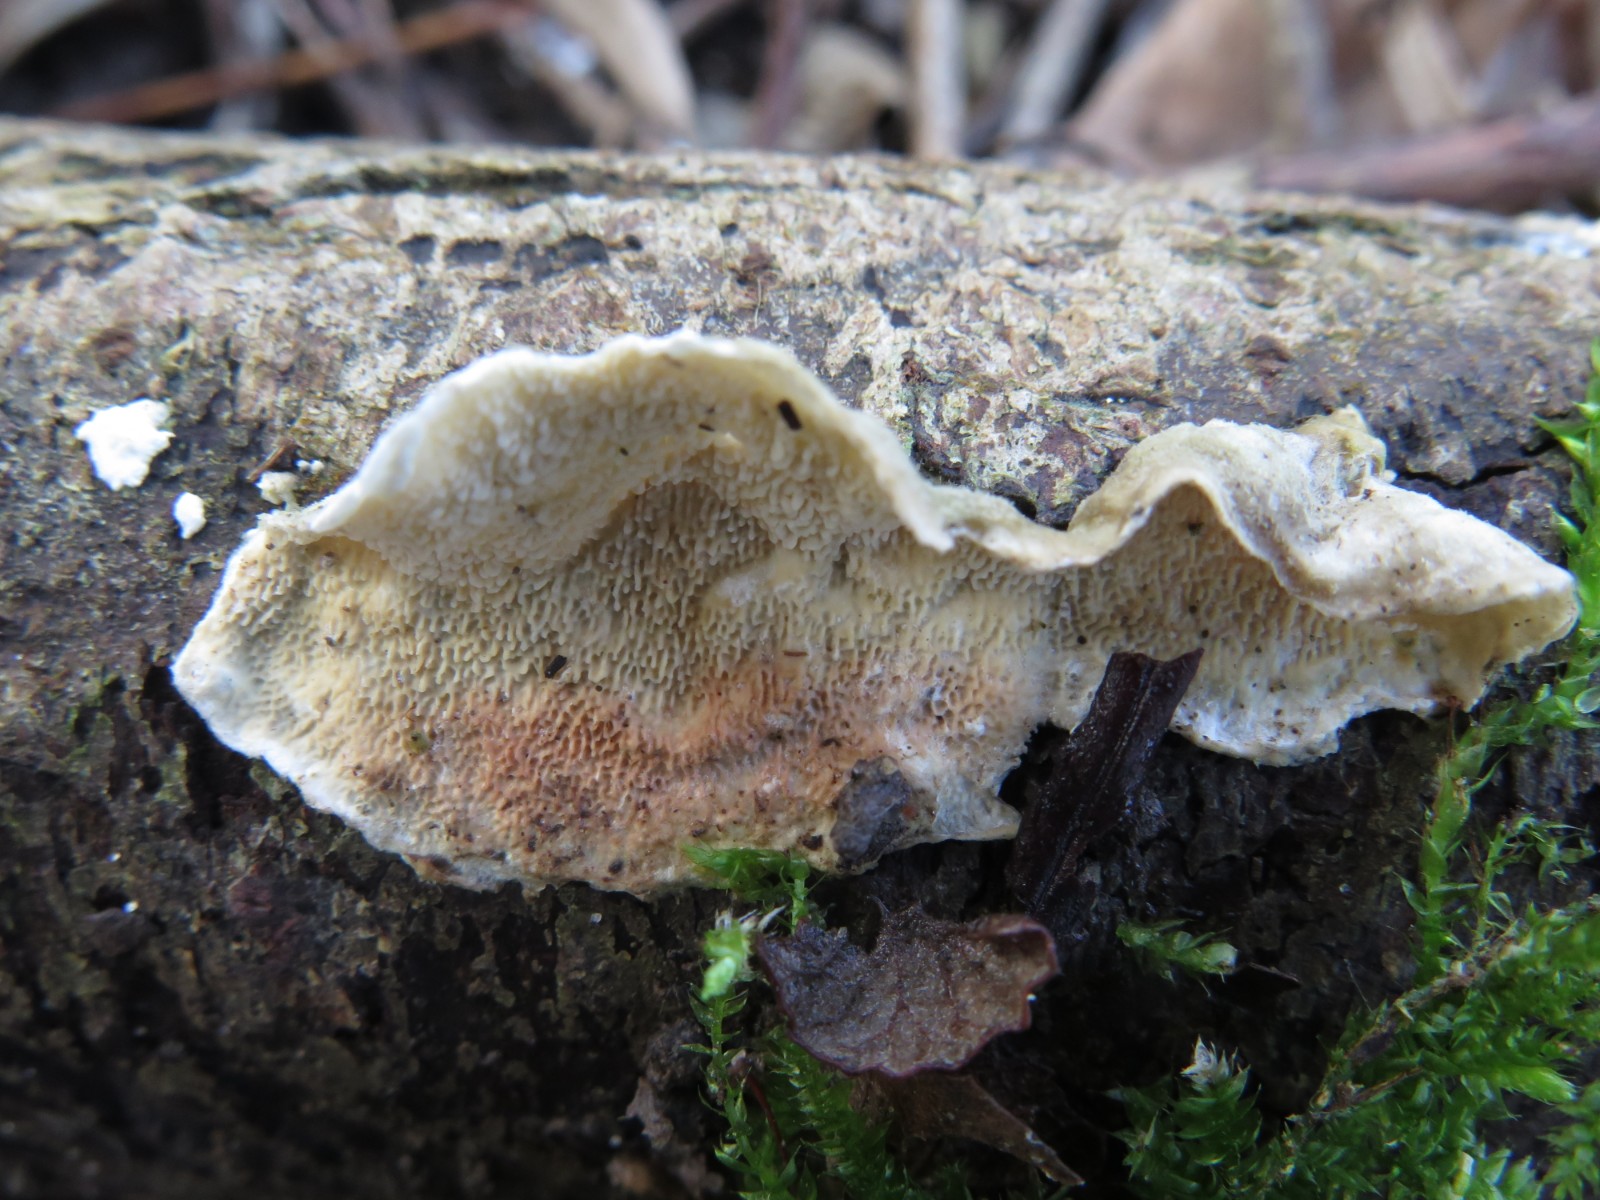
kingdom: Fungi
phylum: Basidiomycota
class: Agaricomycetes
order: Polyporales
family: Meruliaceae
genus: Phlebia
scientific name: Phlebia tremellosa
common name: bævrende åresvamp
